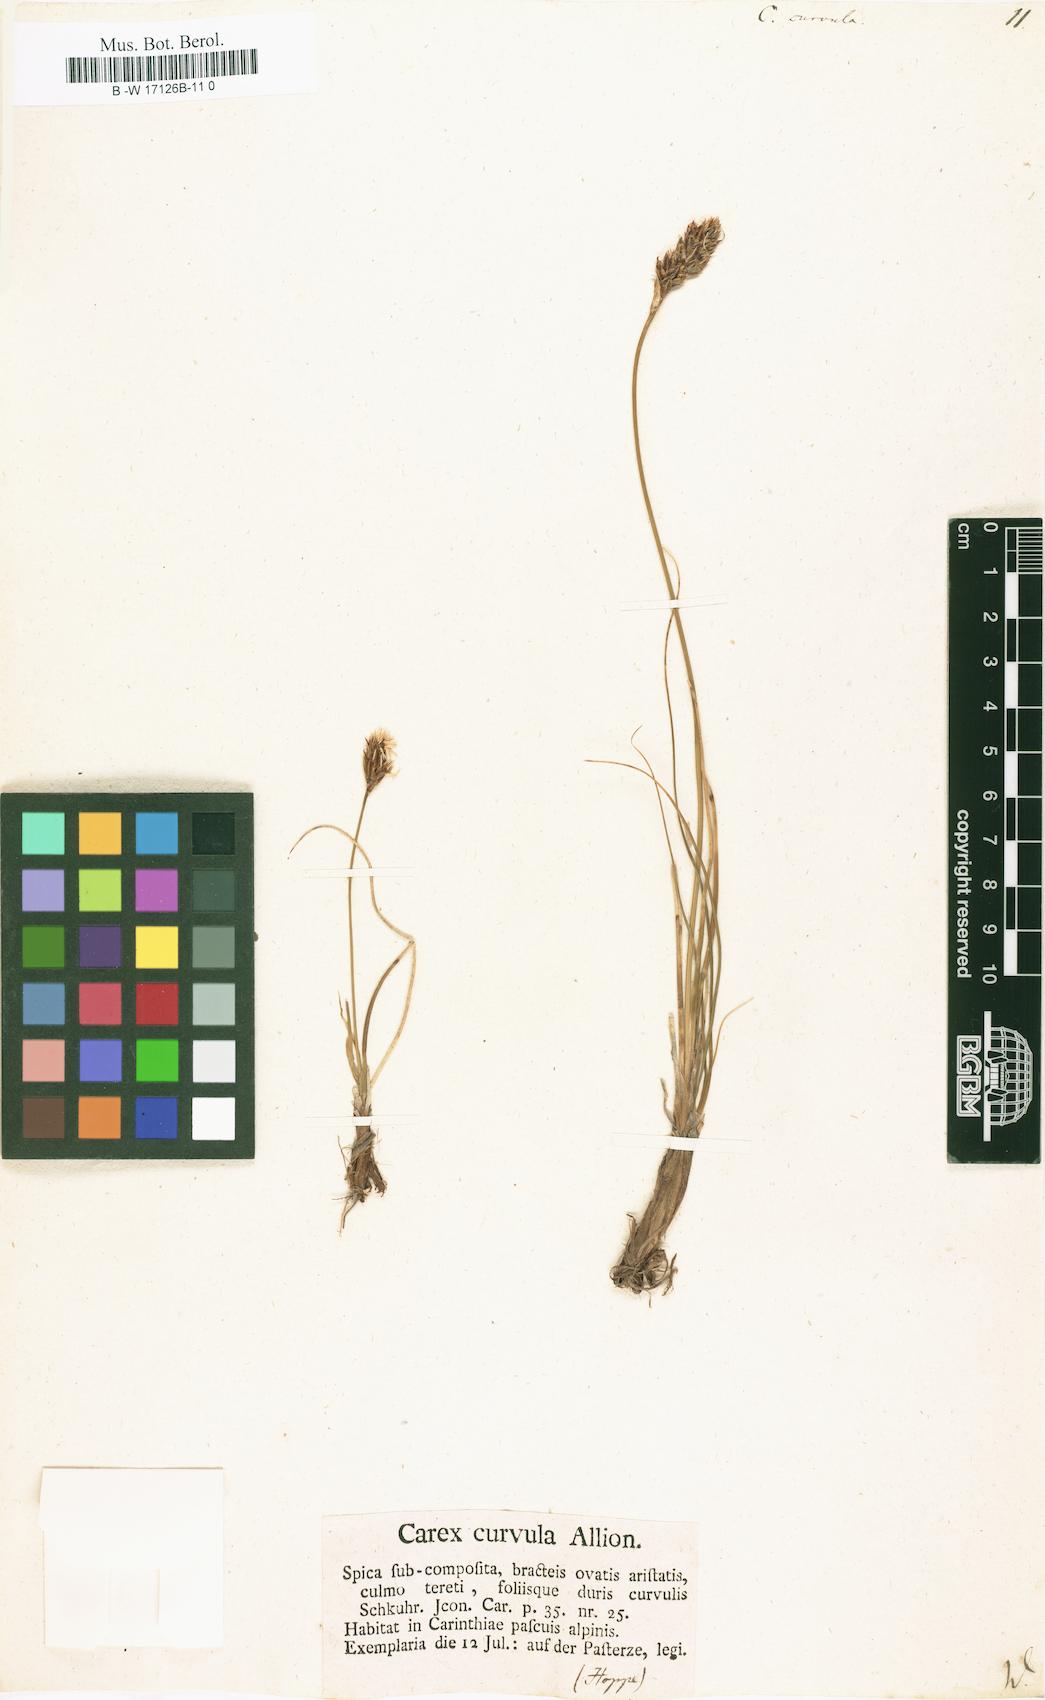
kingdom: Plantae
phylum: Tracheophyta
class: Liliopsida
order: Poales
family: Cyperaceae
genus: Carex
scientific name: Carex curvula
